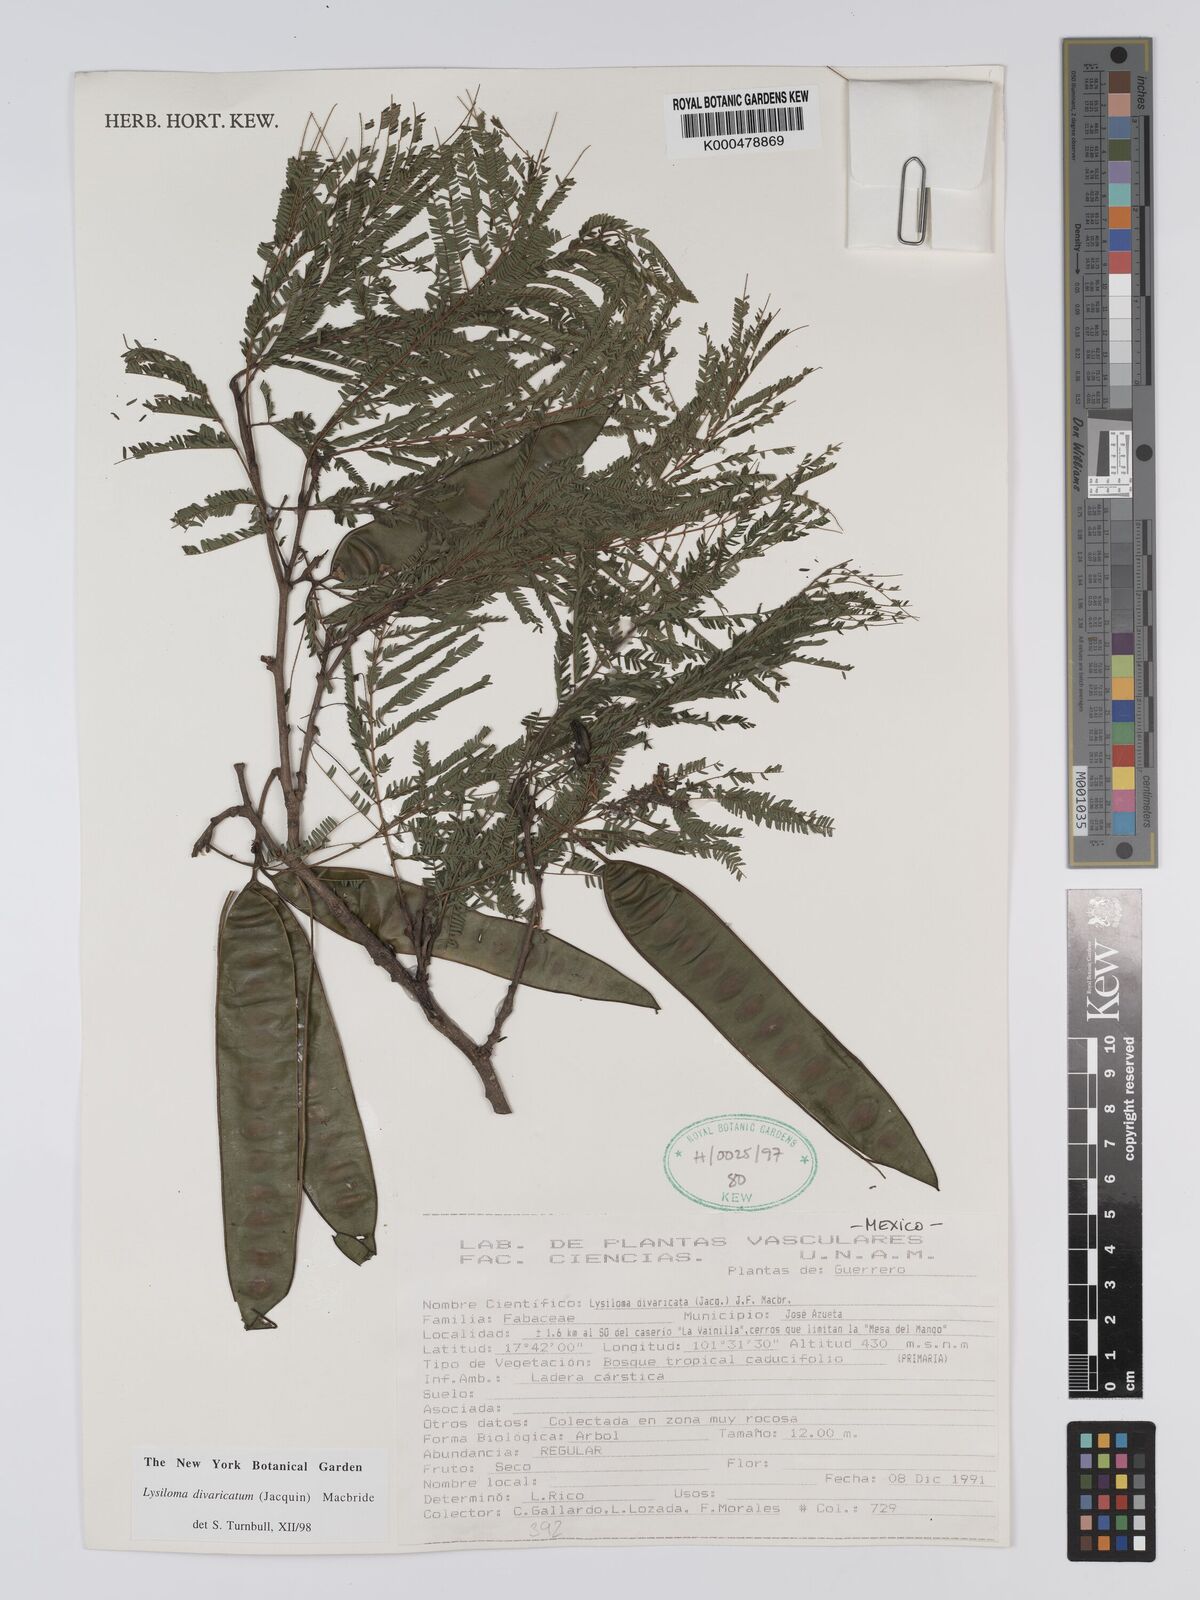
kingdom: Plantae
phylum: Tracheophyta
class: Magnoliopsida
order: Fabales
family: Fabaceae
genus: Lysiloma
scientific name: Lysiloma divaricatum
